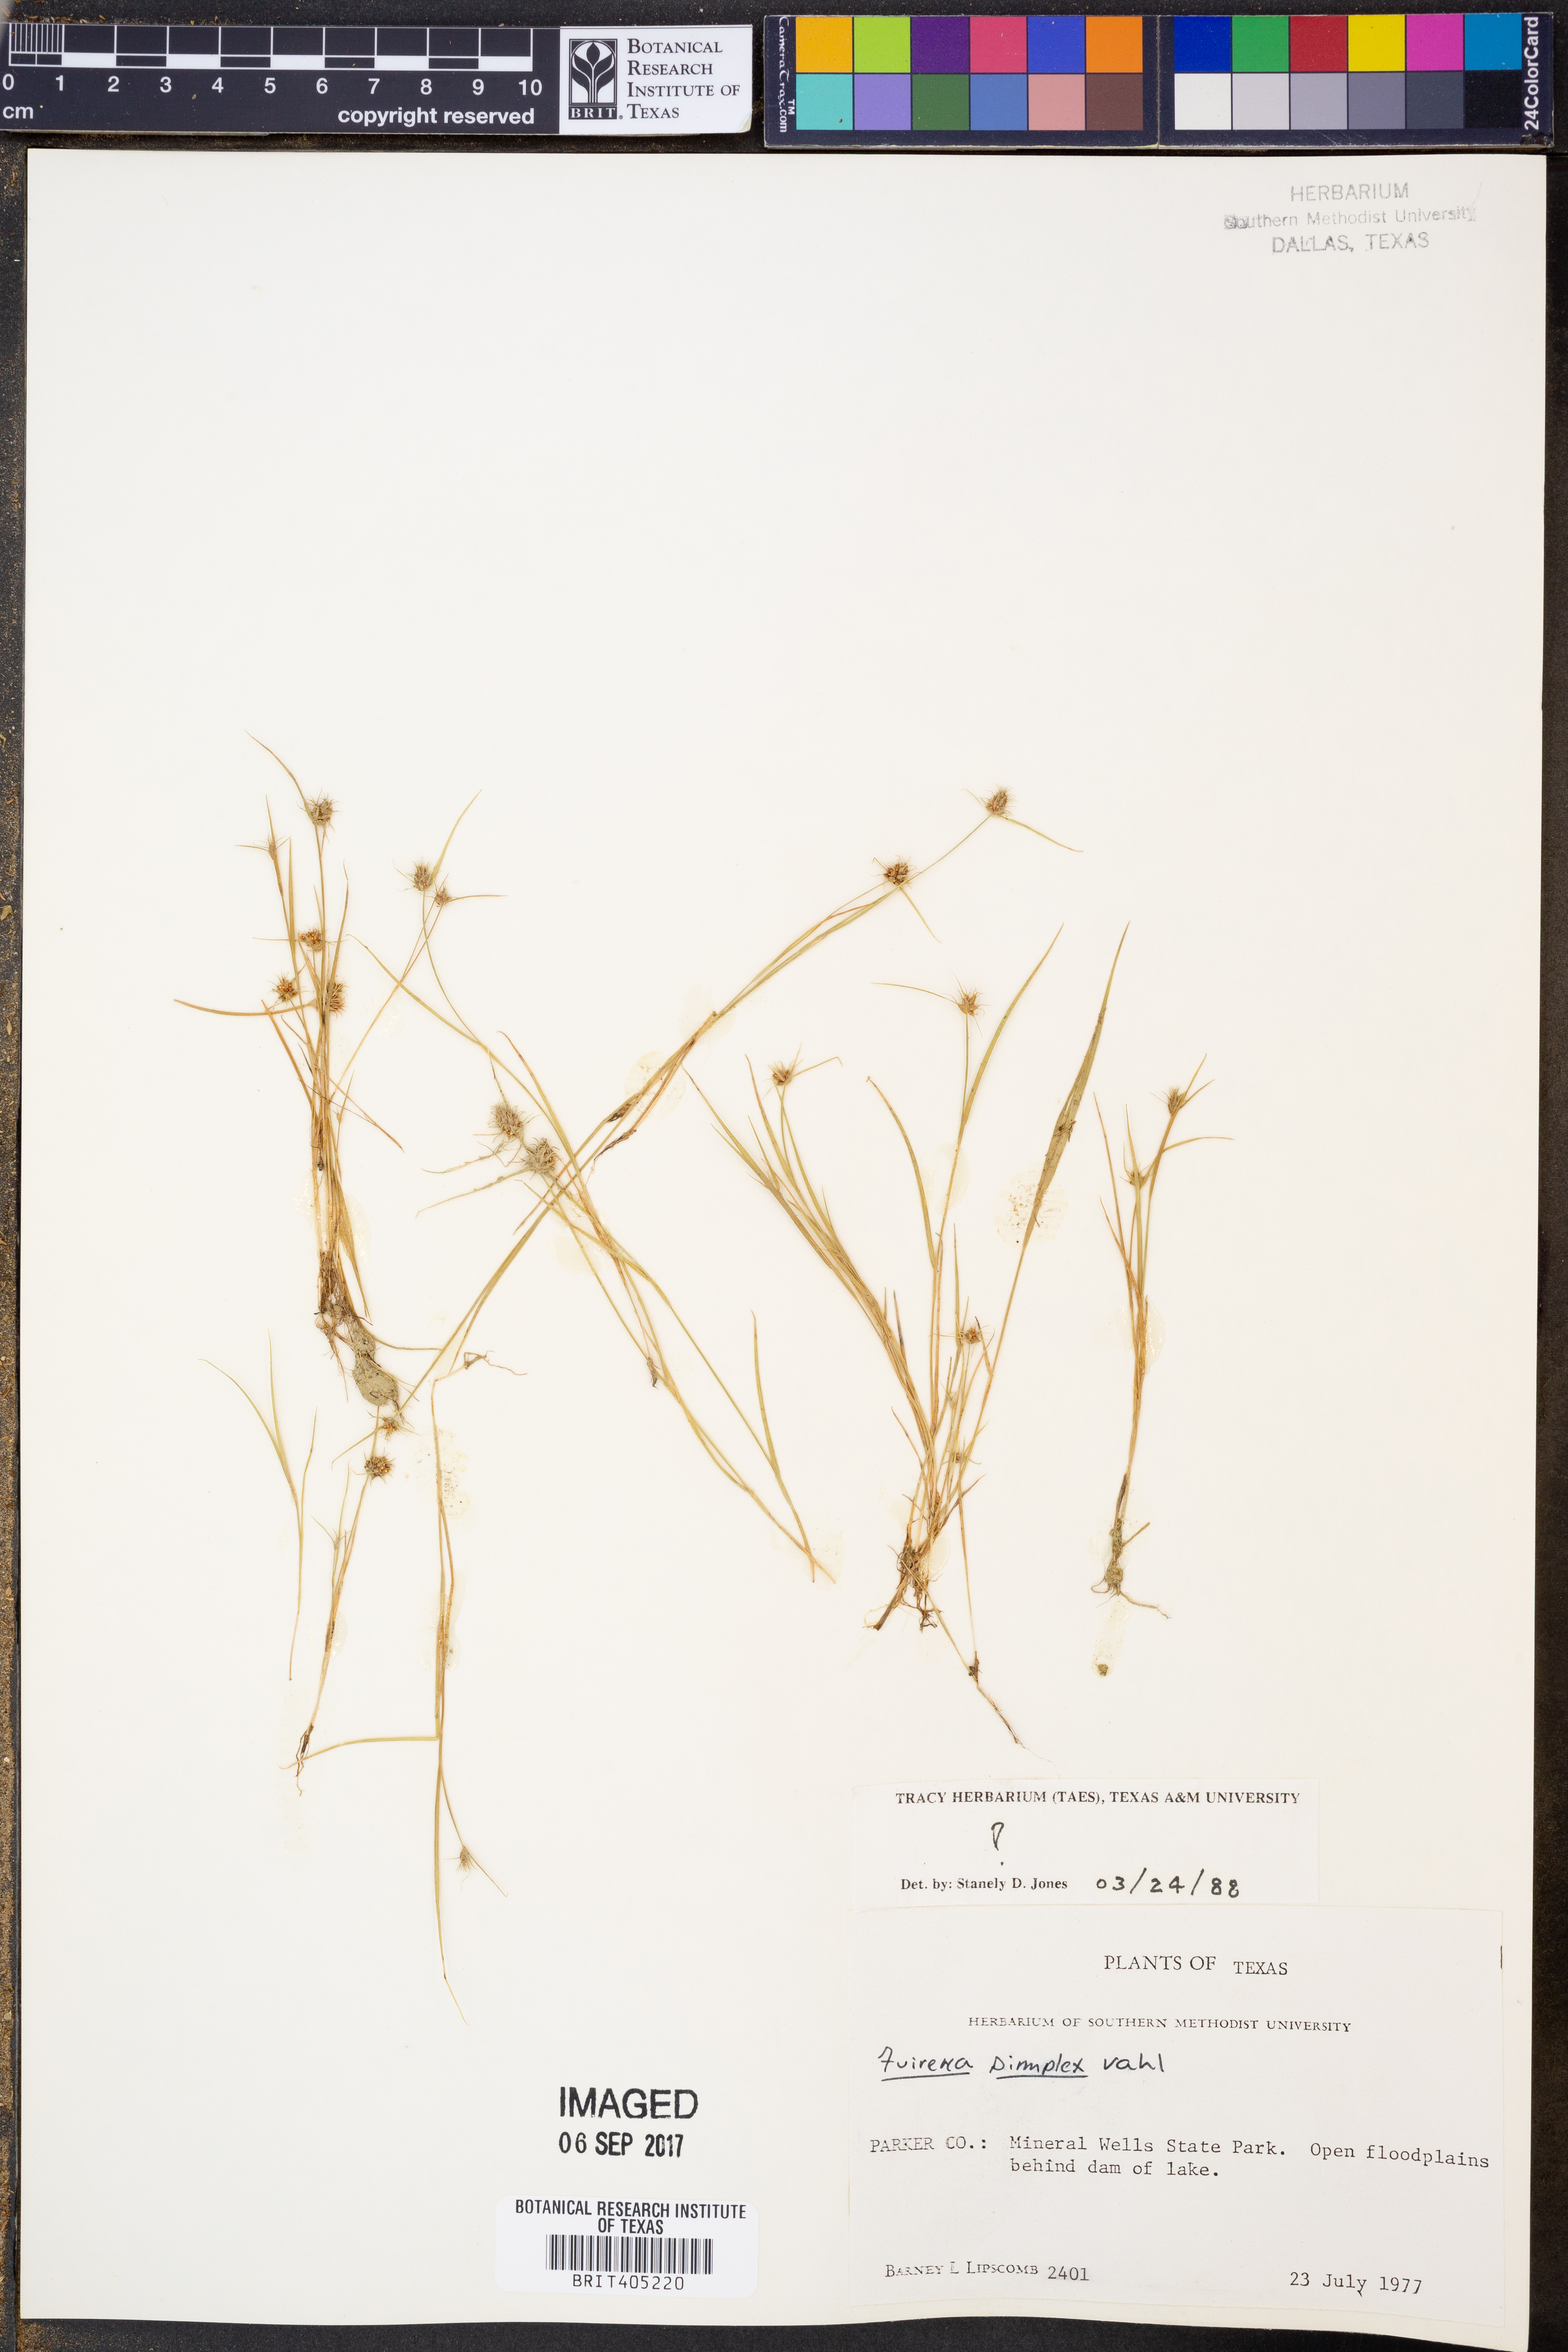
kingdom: Plantae
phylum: Tracheophyta
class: Liliopsida
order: Poales
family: Cyperaceae
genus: Fuirena
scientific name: Fuirena simplex
